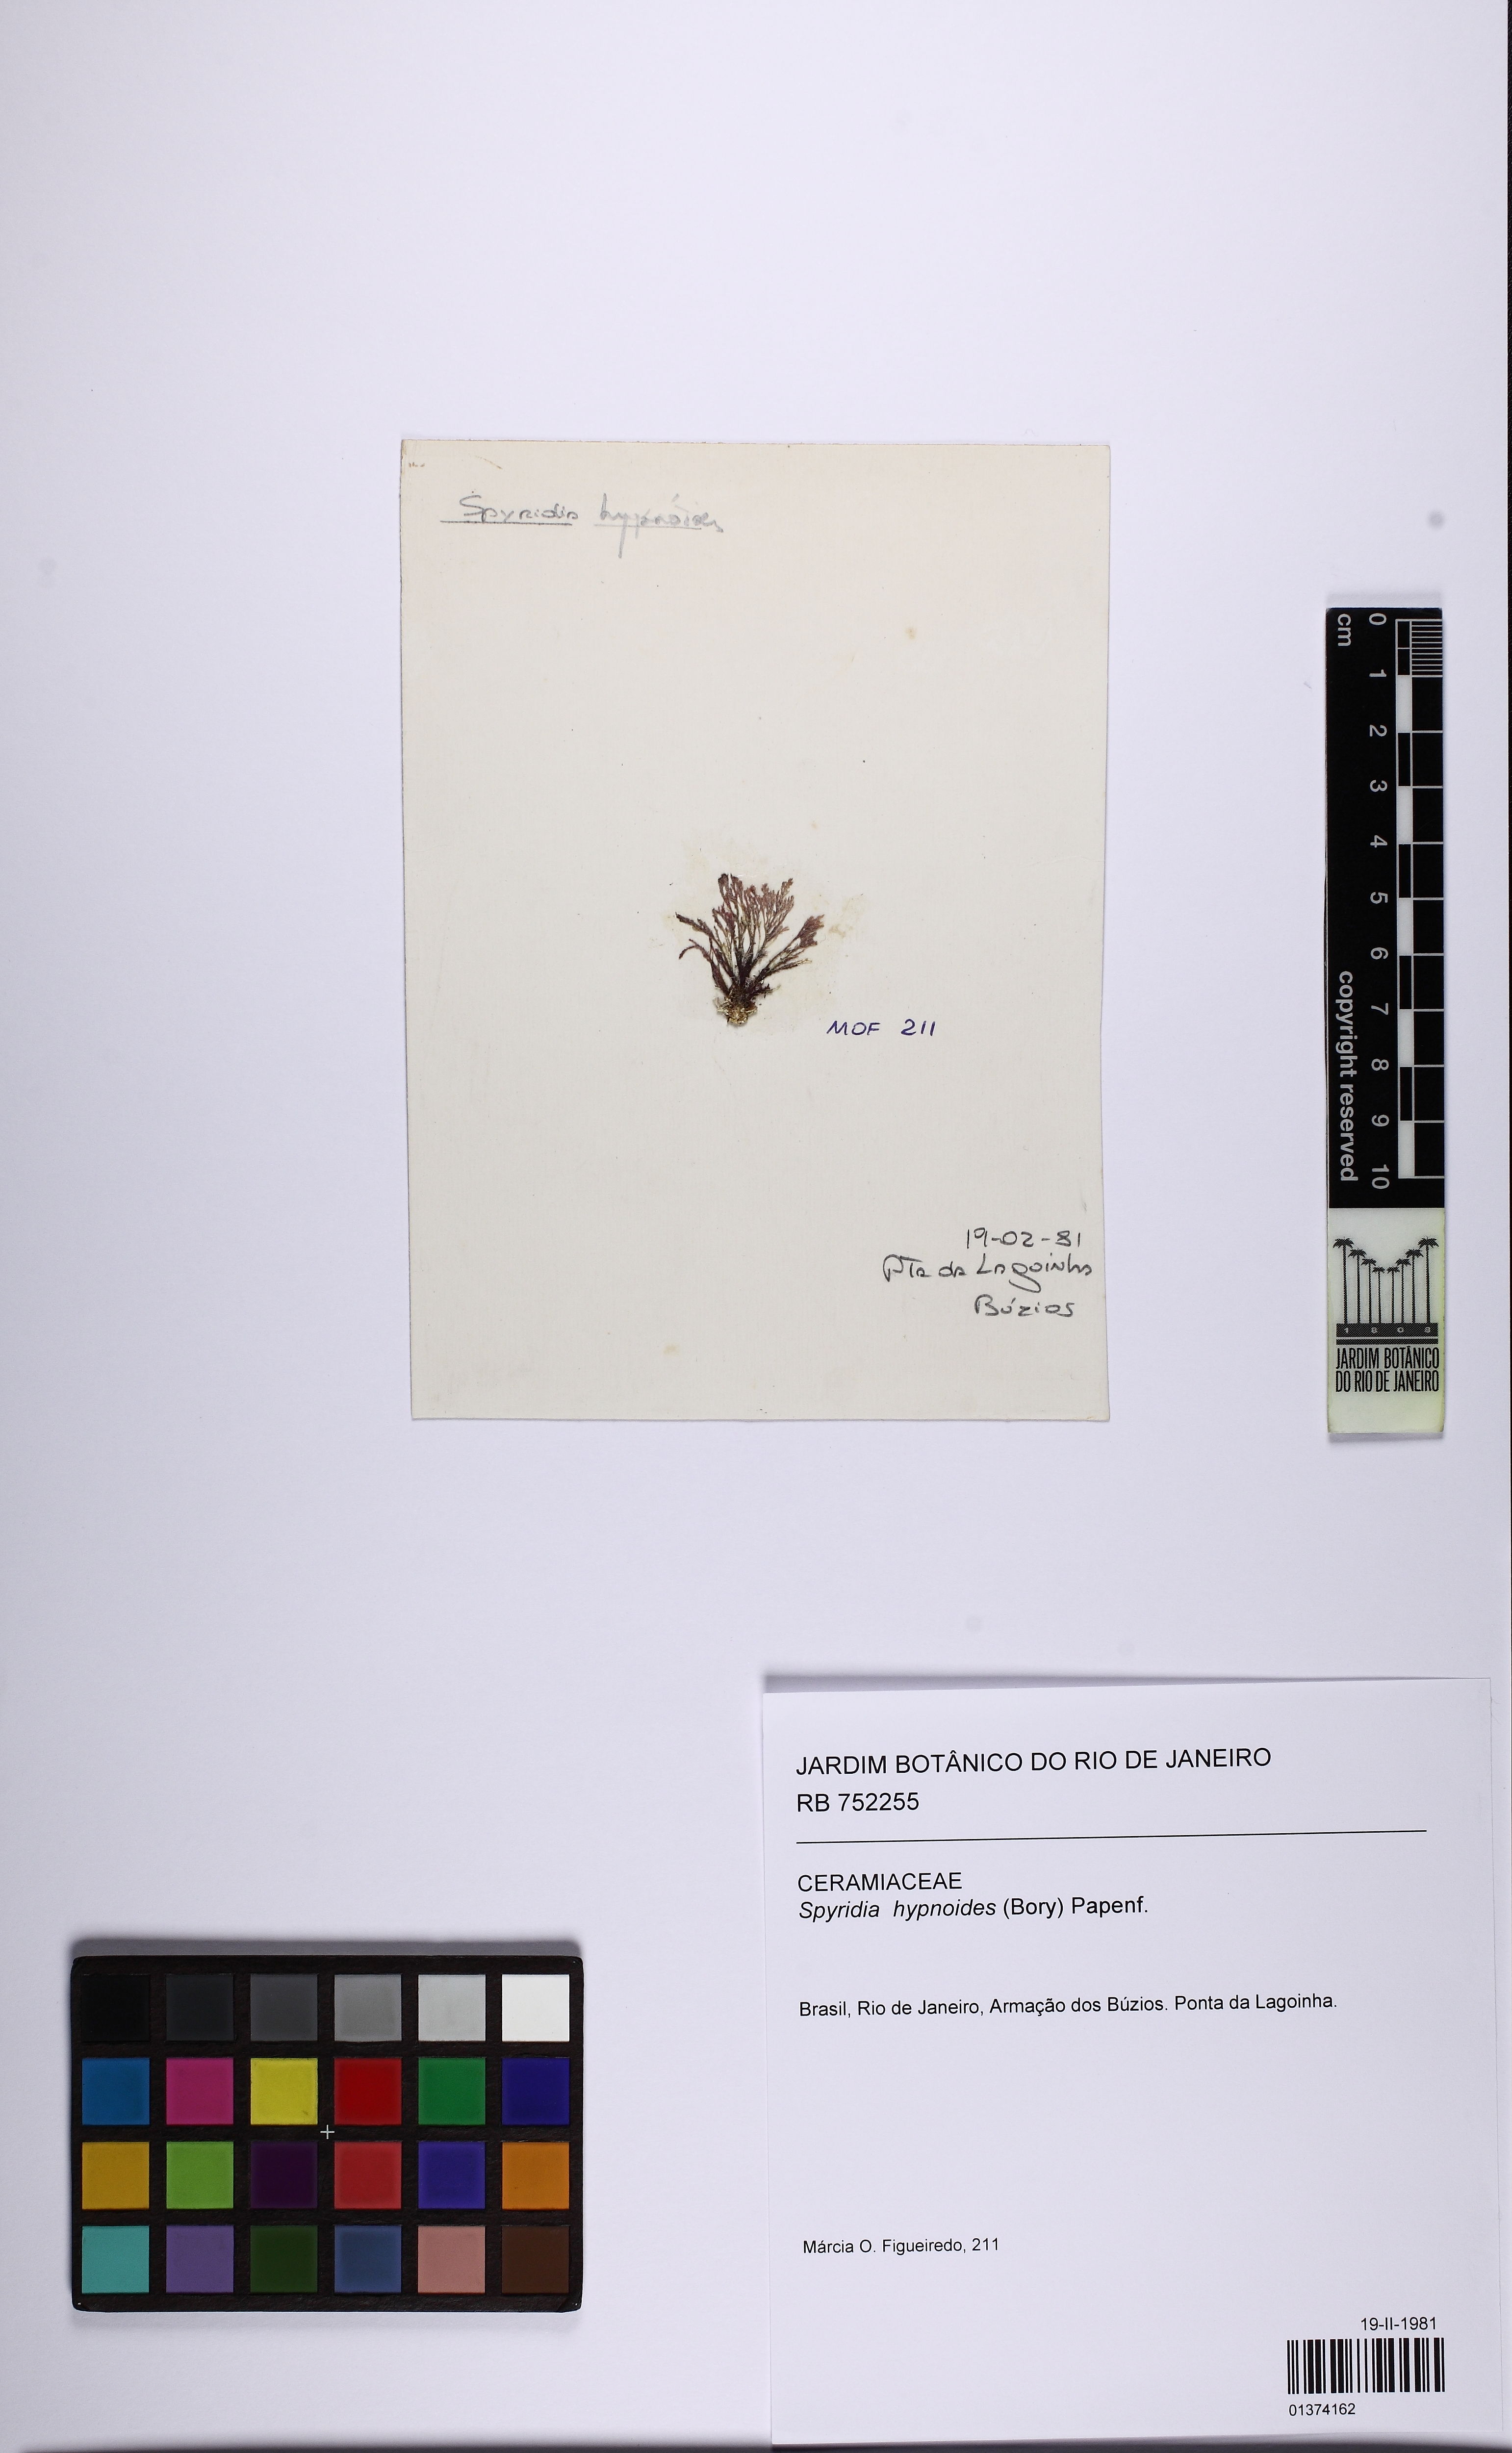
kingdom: Plantae
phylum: Rhodophyta
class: Florideophyceae
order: Ceramiales
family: Spyridiaceae
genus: Spyridia
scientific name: Spyridia hypnoides
